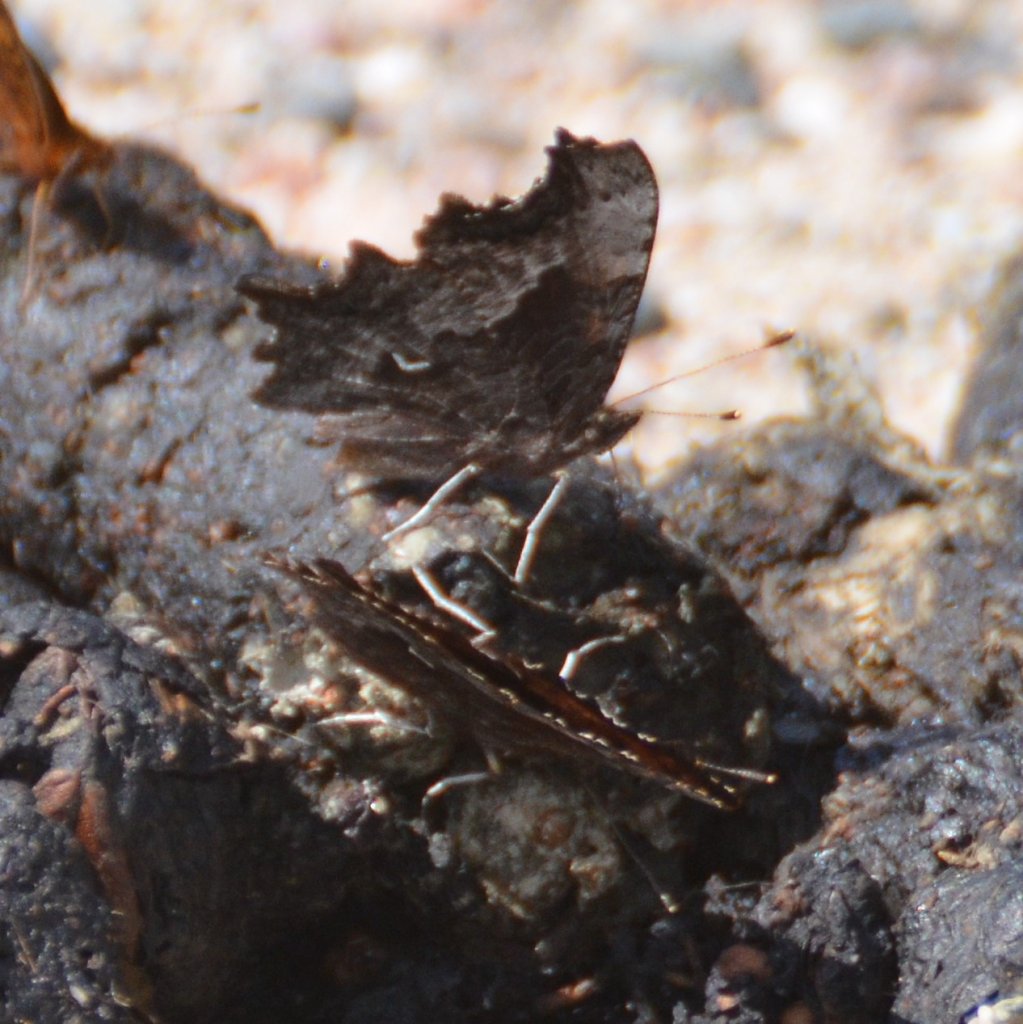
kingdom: Animalia
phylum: Arthropoda
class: Insecta
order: Lepidoptera
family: Nymphalidae
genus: Polygonia
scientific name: Polygonia gracilis
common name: Hoary Comma
